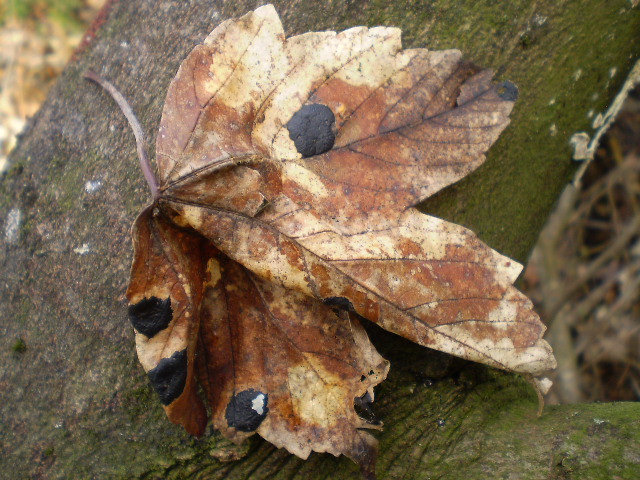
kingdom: Fungi
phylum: Ascomycota
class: Leotiomycetes
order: Rhytismatales
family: Rhytismataceae
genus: Rhytisma
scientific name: Rhytisma acerinum
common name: ahorn-rynkeplet
